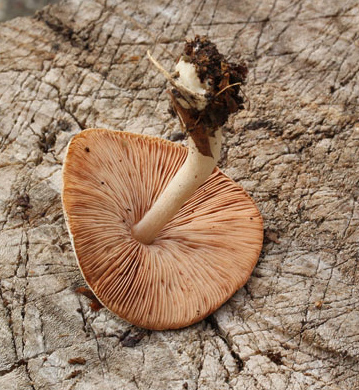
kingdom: Fungi
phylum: Basidiomycota
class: Agaricomycetes
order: Agaricales
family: Pluteaceae
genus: Volvariella
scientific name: Volvariella hypopithys
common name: dunstokket posesvamp
